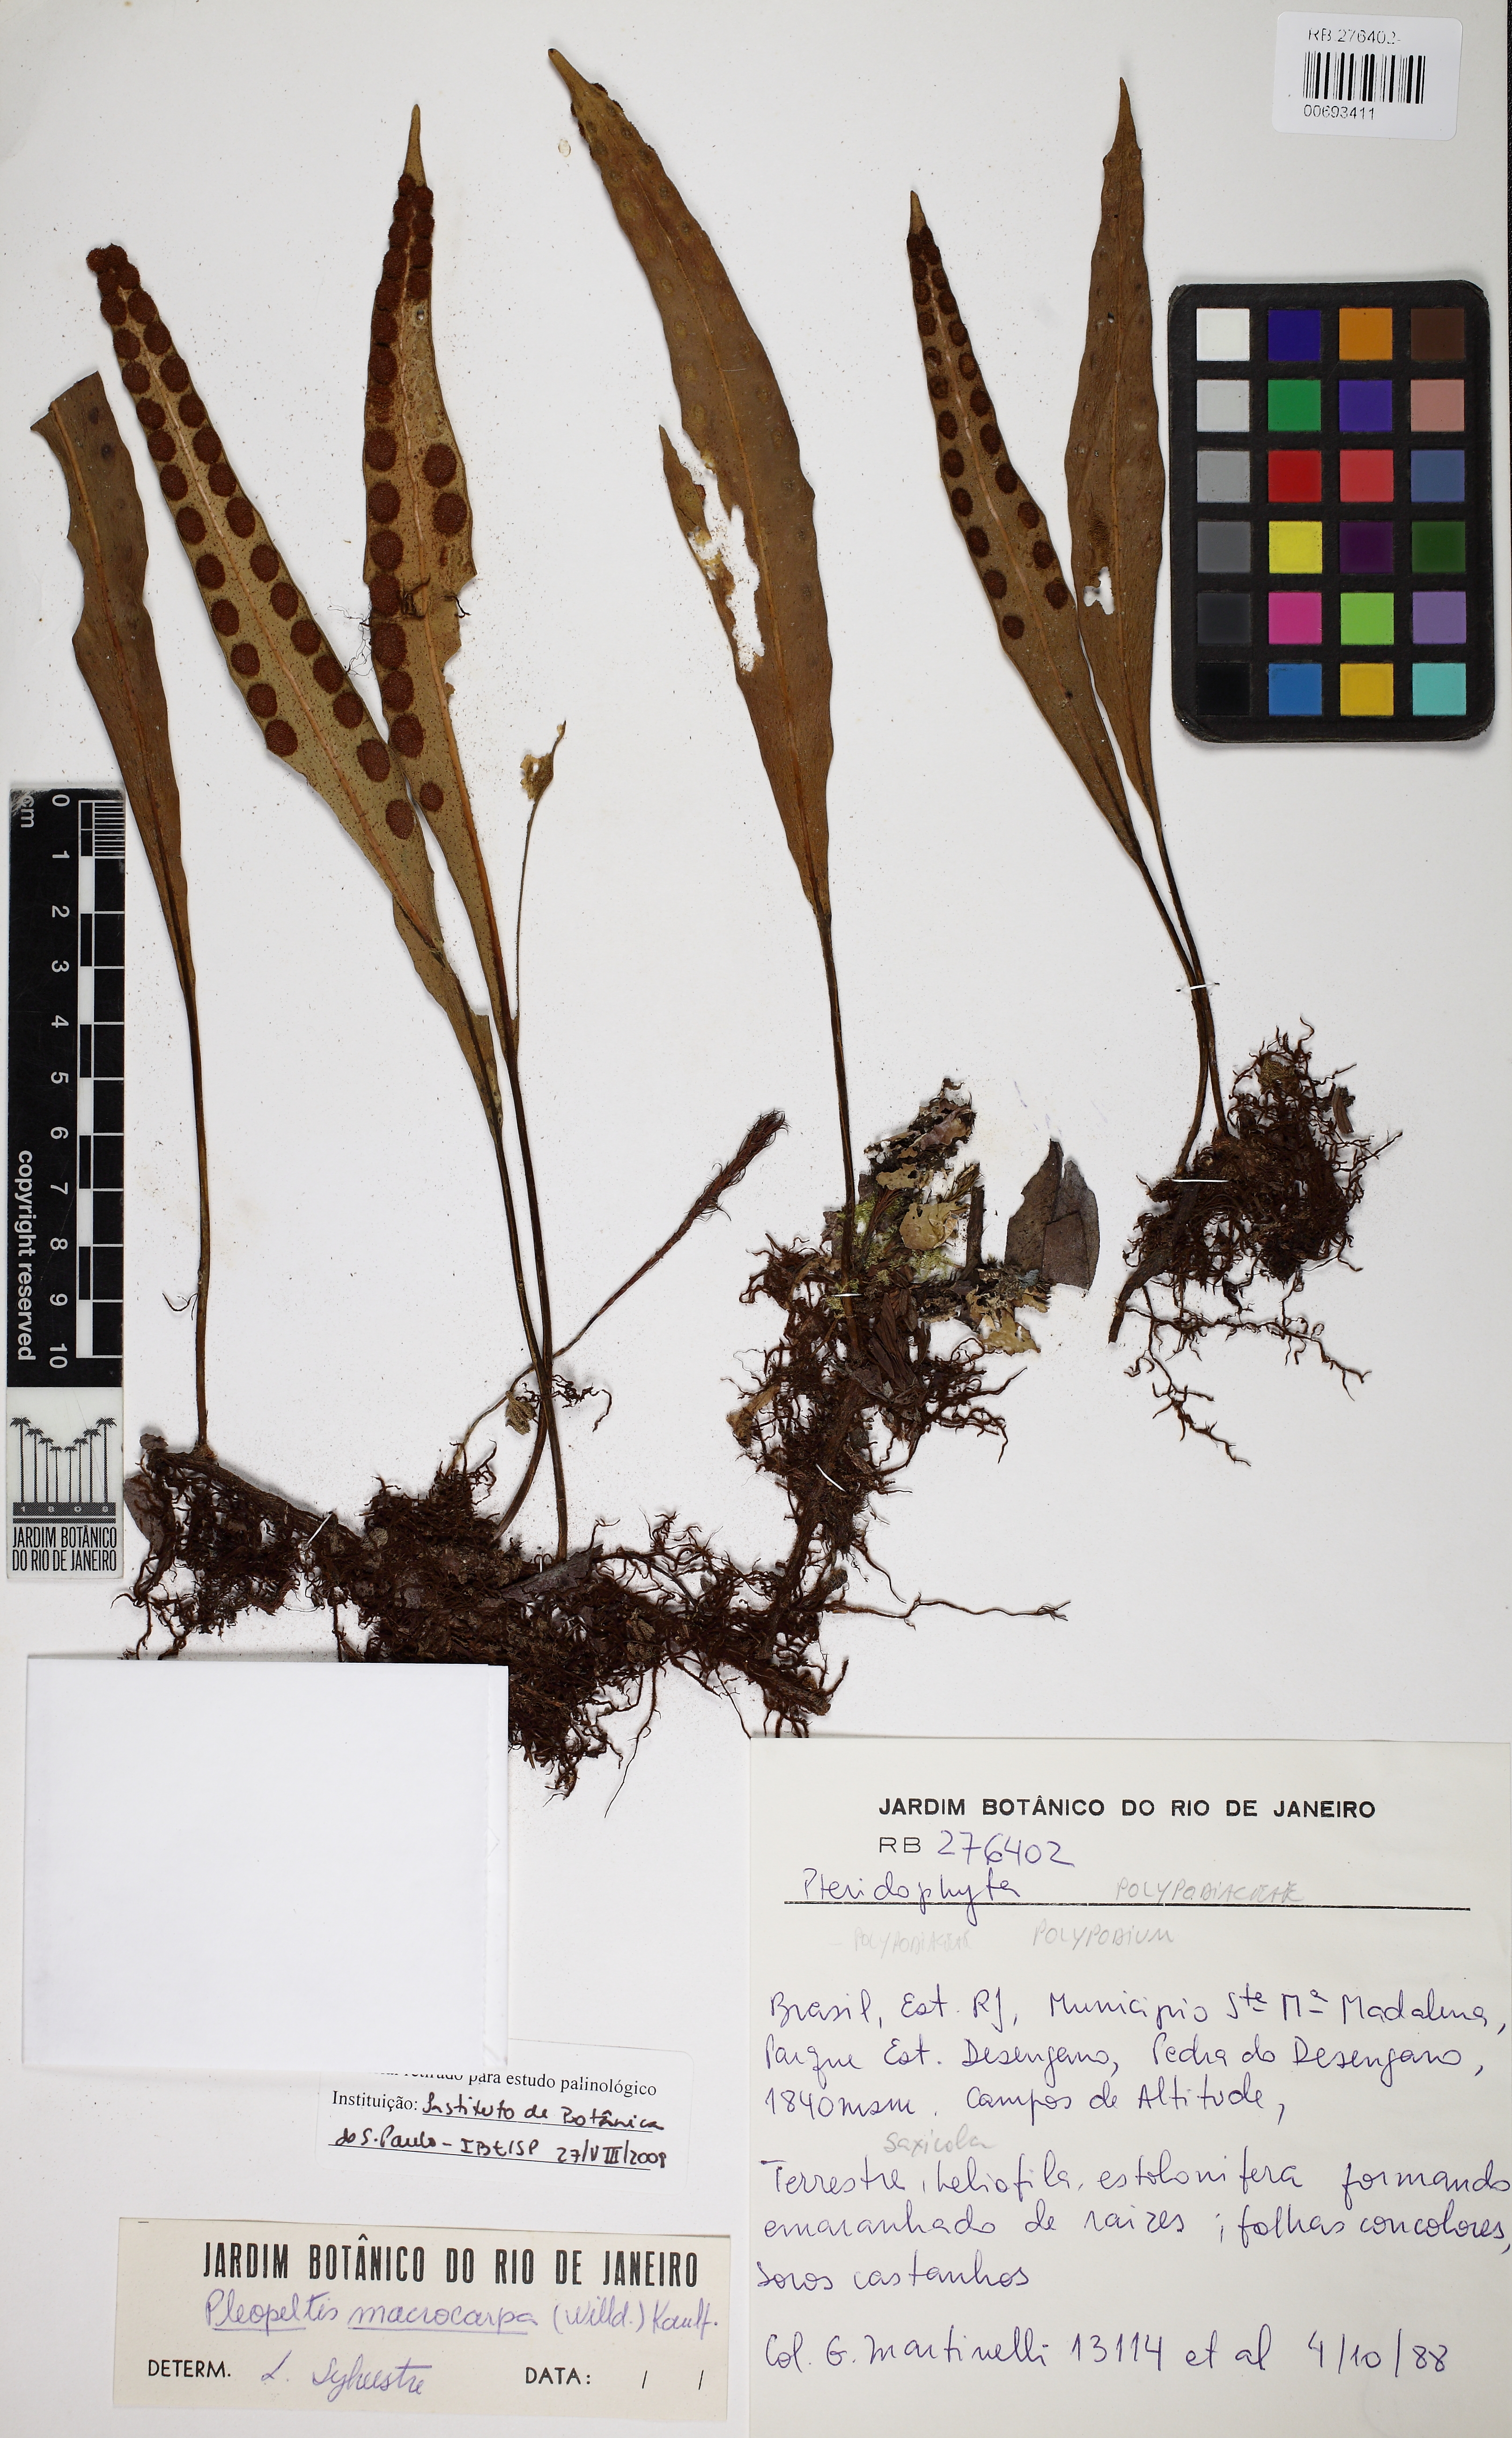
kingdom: Plantae
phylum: Tracheophyta
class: Polypodiopsida
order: Polypodiales
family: Polypodiaceae
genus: Pleopeltis
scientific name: Pleopeltis macrocarpa
